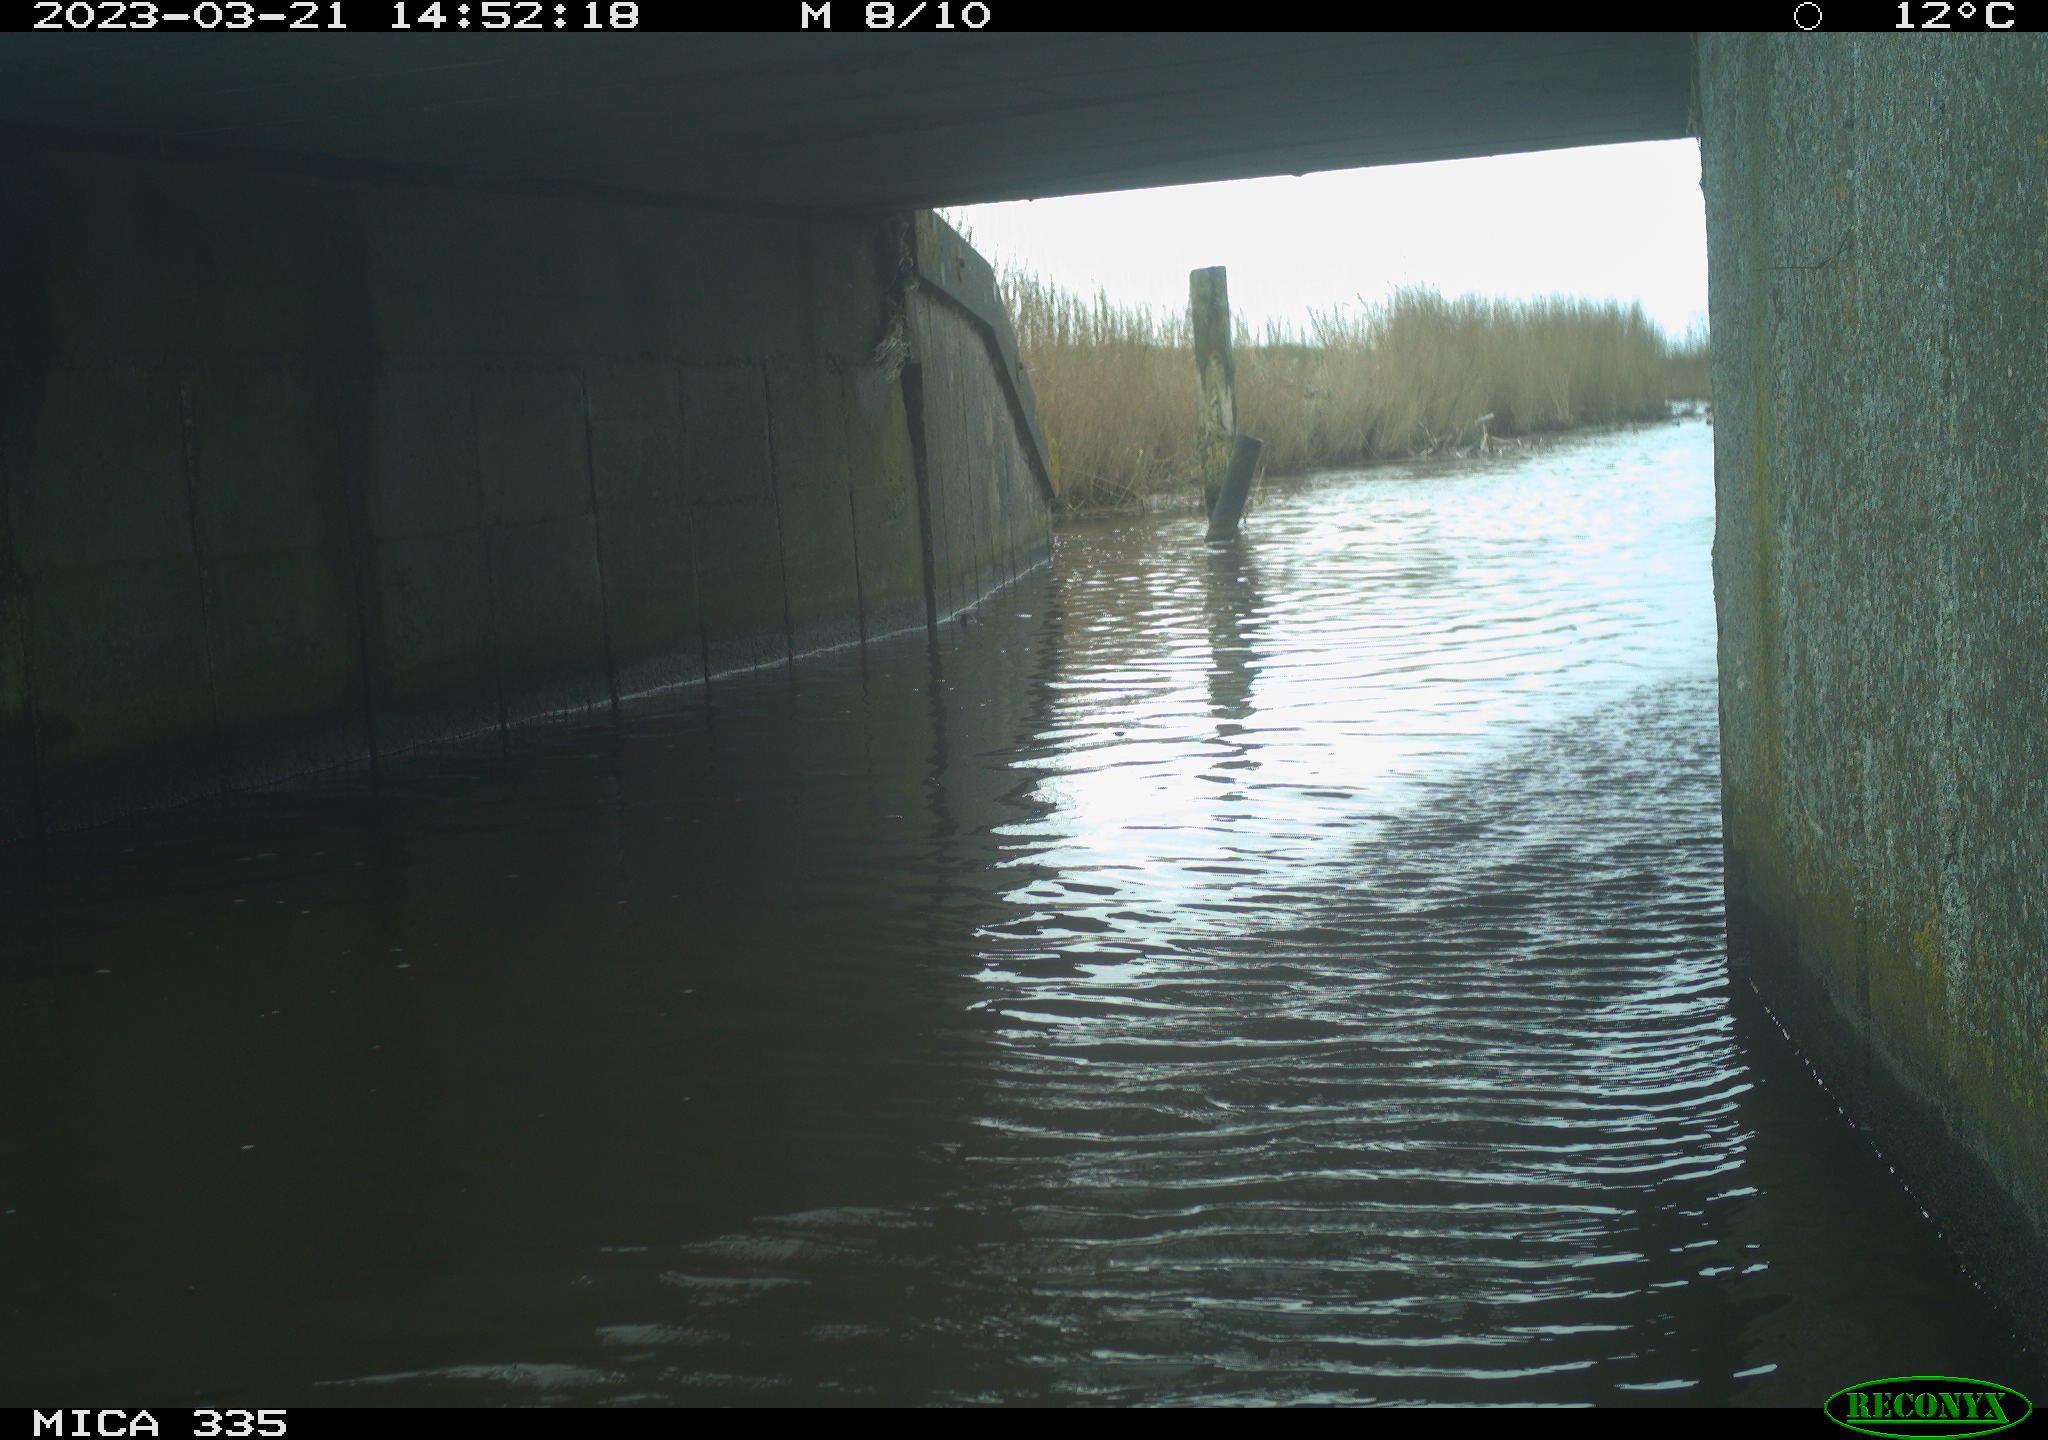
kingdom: Animalia
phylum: Chordata
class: Aves
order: Anseriformes
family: Anatidae
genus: Anas
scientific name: Anas
